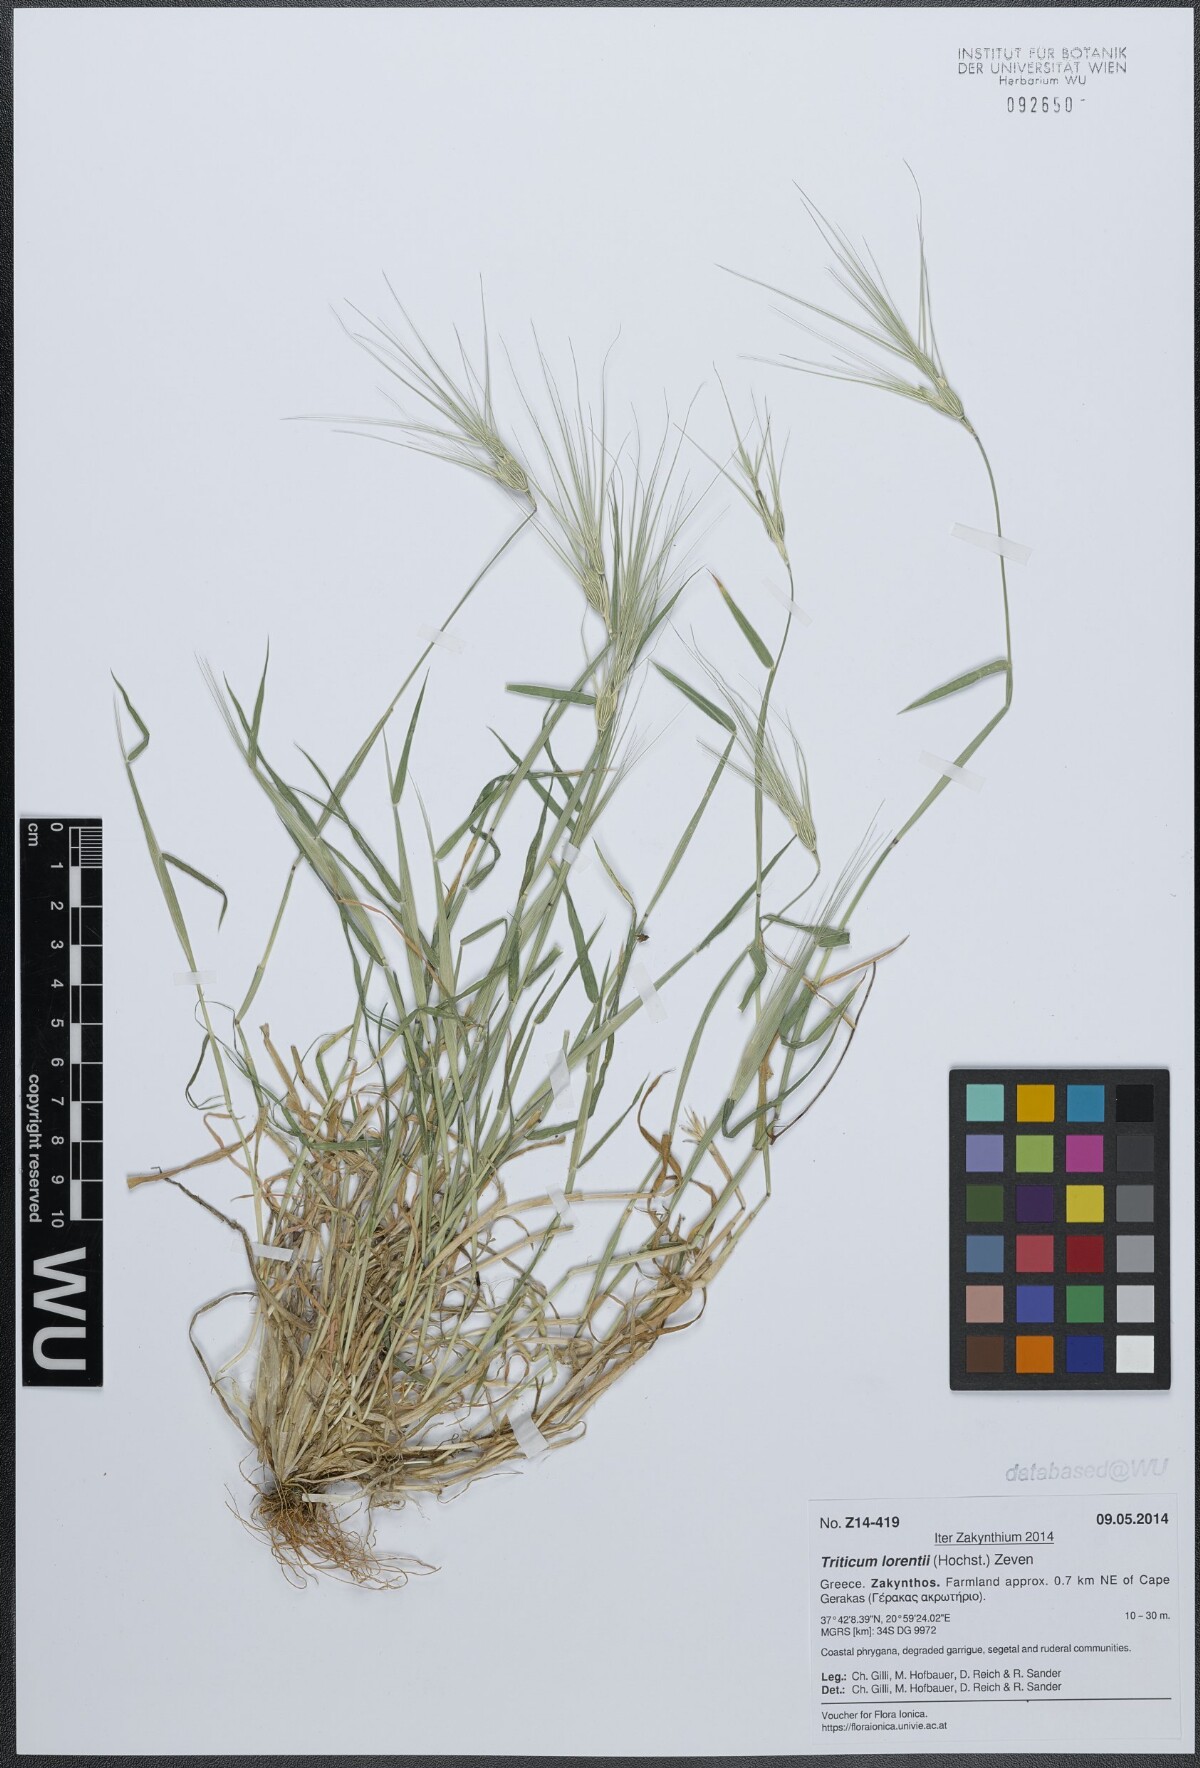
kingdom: Plantae
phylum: Tracheophyta
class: Liliopsida
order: Poales
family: Poaceae
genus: Aegilops
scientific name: Aegilops biuncialis
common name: Mediterranean aegilops
